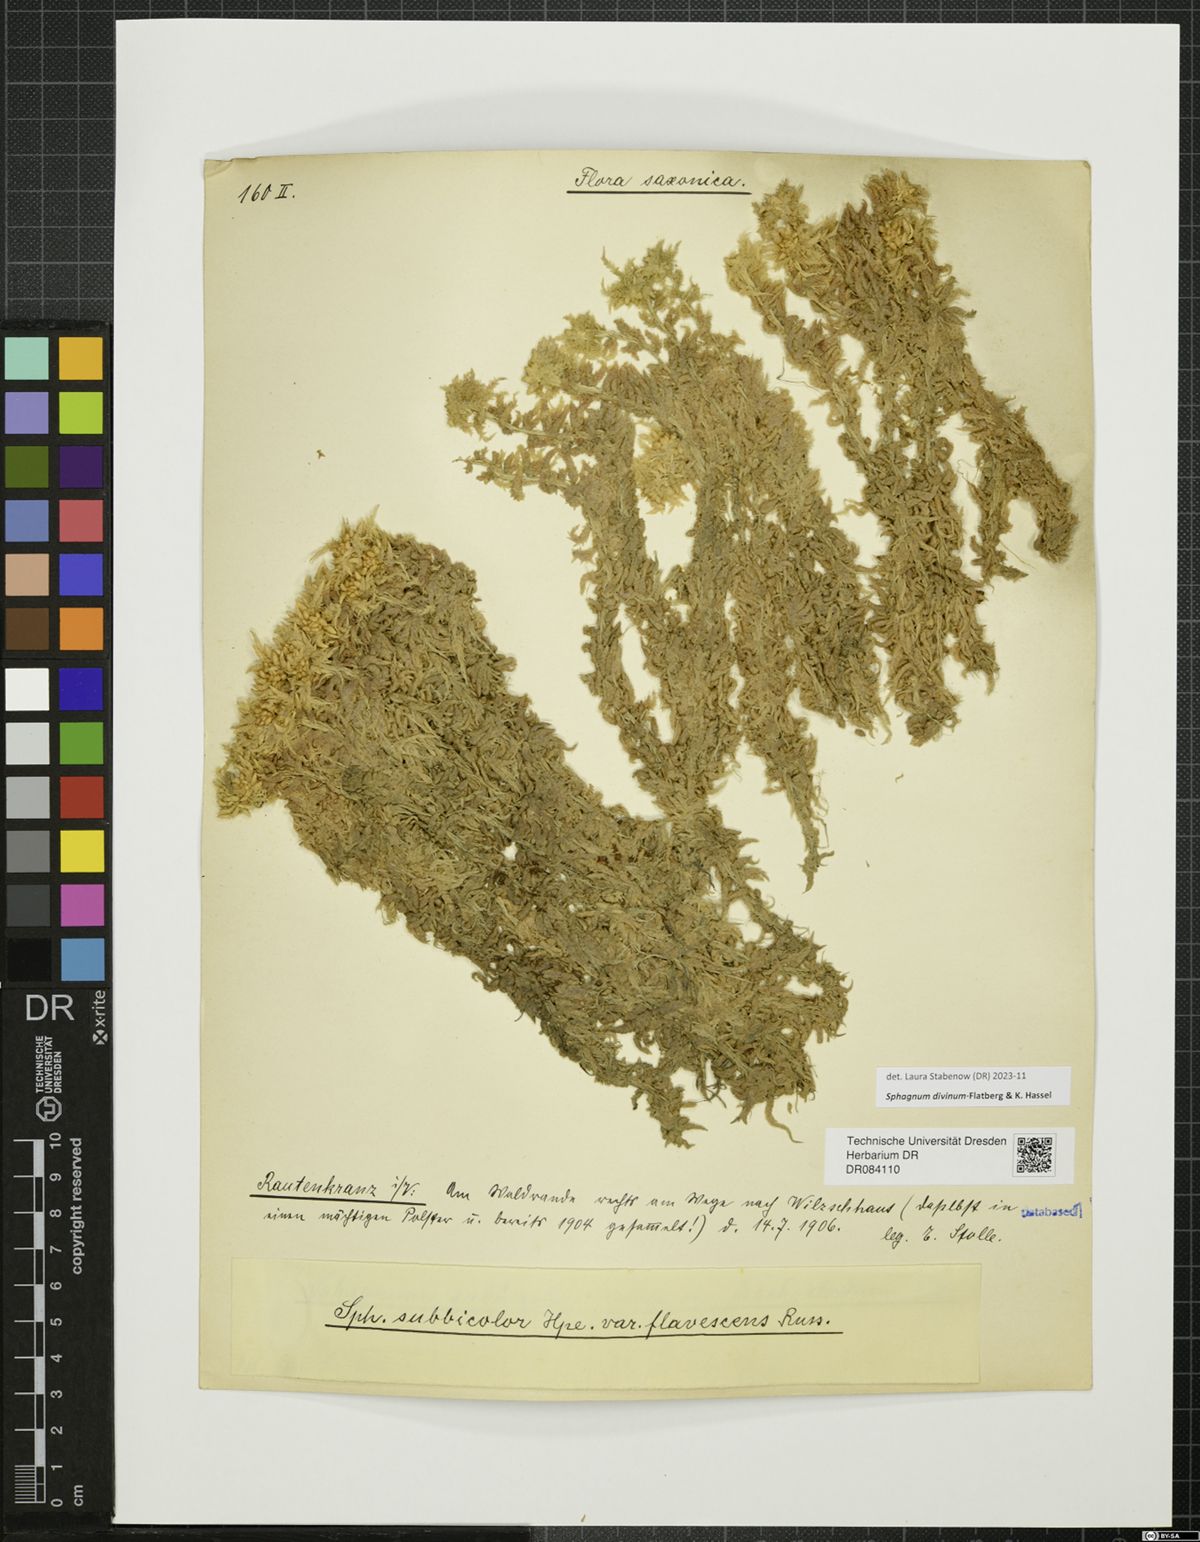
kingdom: Plantae
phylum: Bryophyta
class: Sphagnopsida
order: Sphagnales
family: Sphagnaceae
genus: Sphagnum
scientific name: Sphagnum divinum
